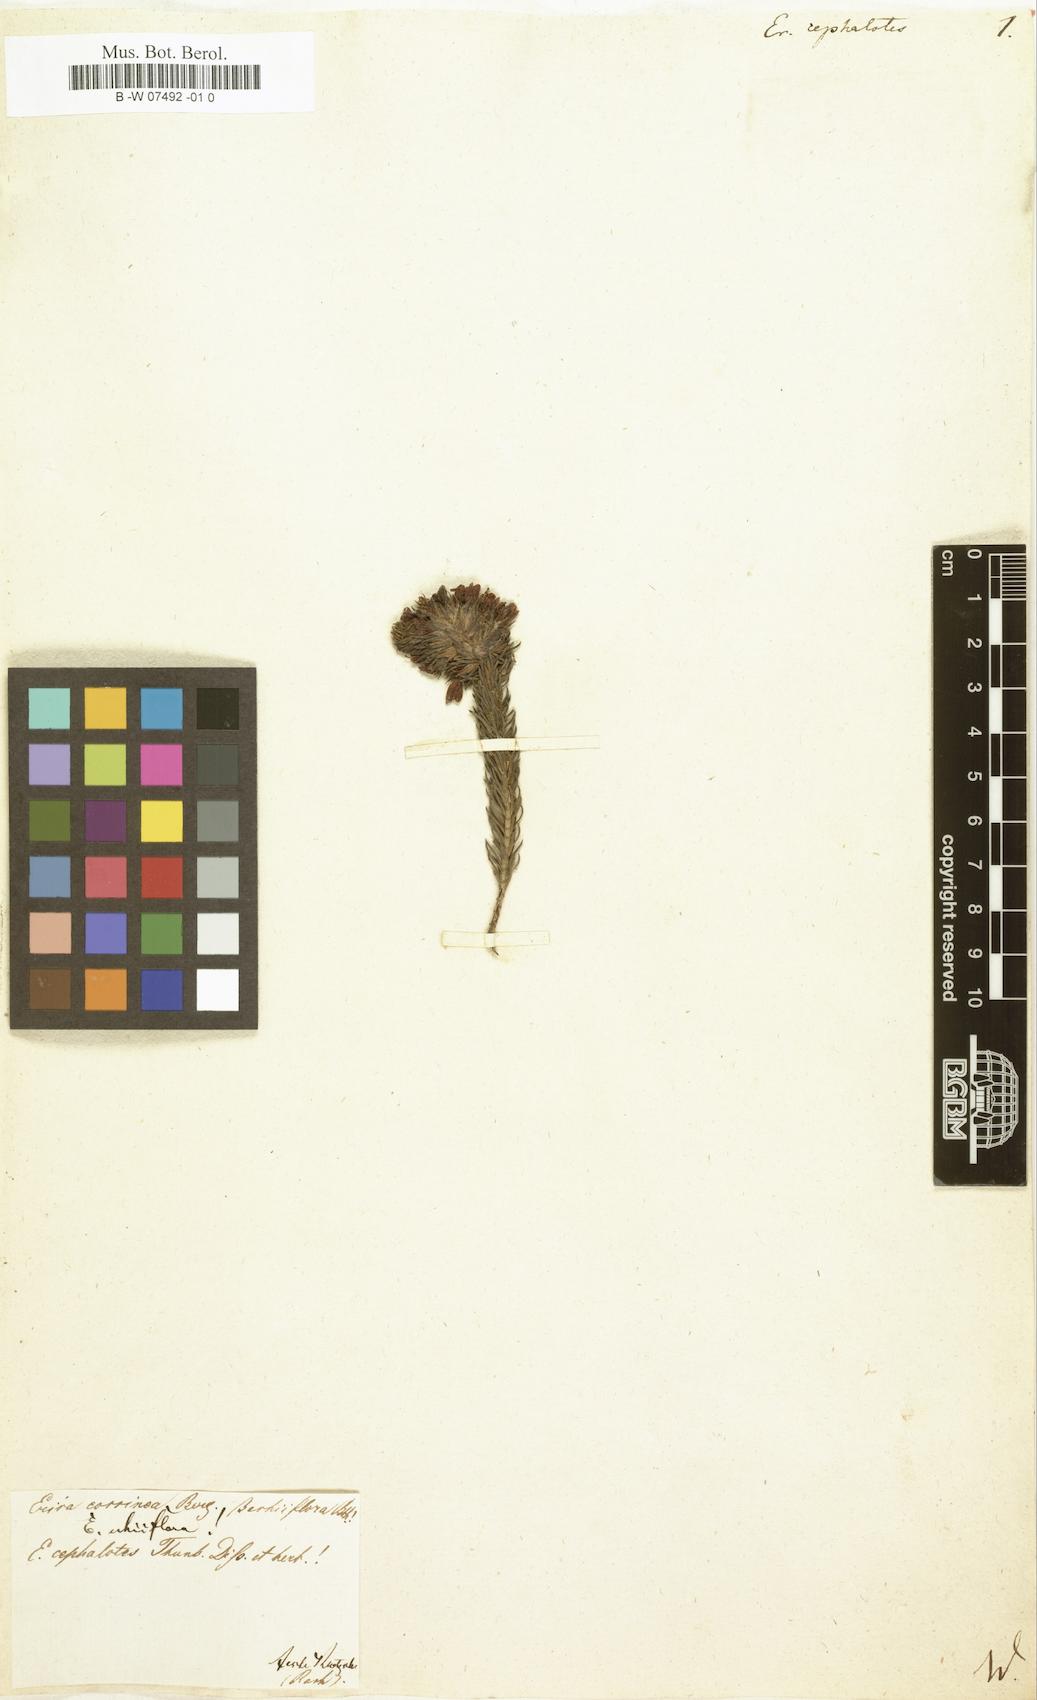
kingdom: Plantae
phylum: Tracheophyta
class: Magnoliopsida
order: Ericales
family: Ericaceae
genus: Erica
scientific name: Erica viscaria
